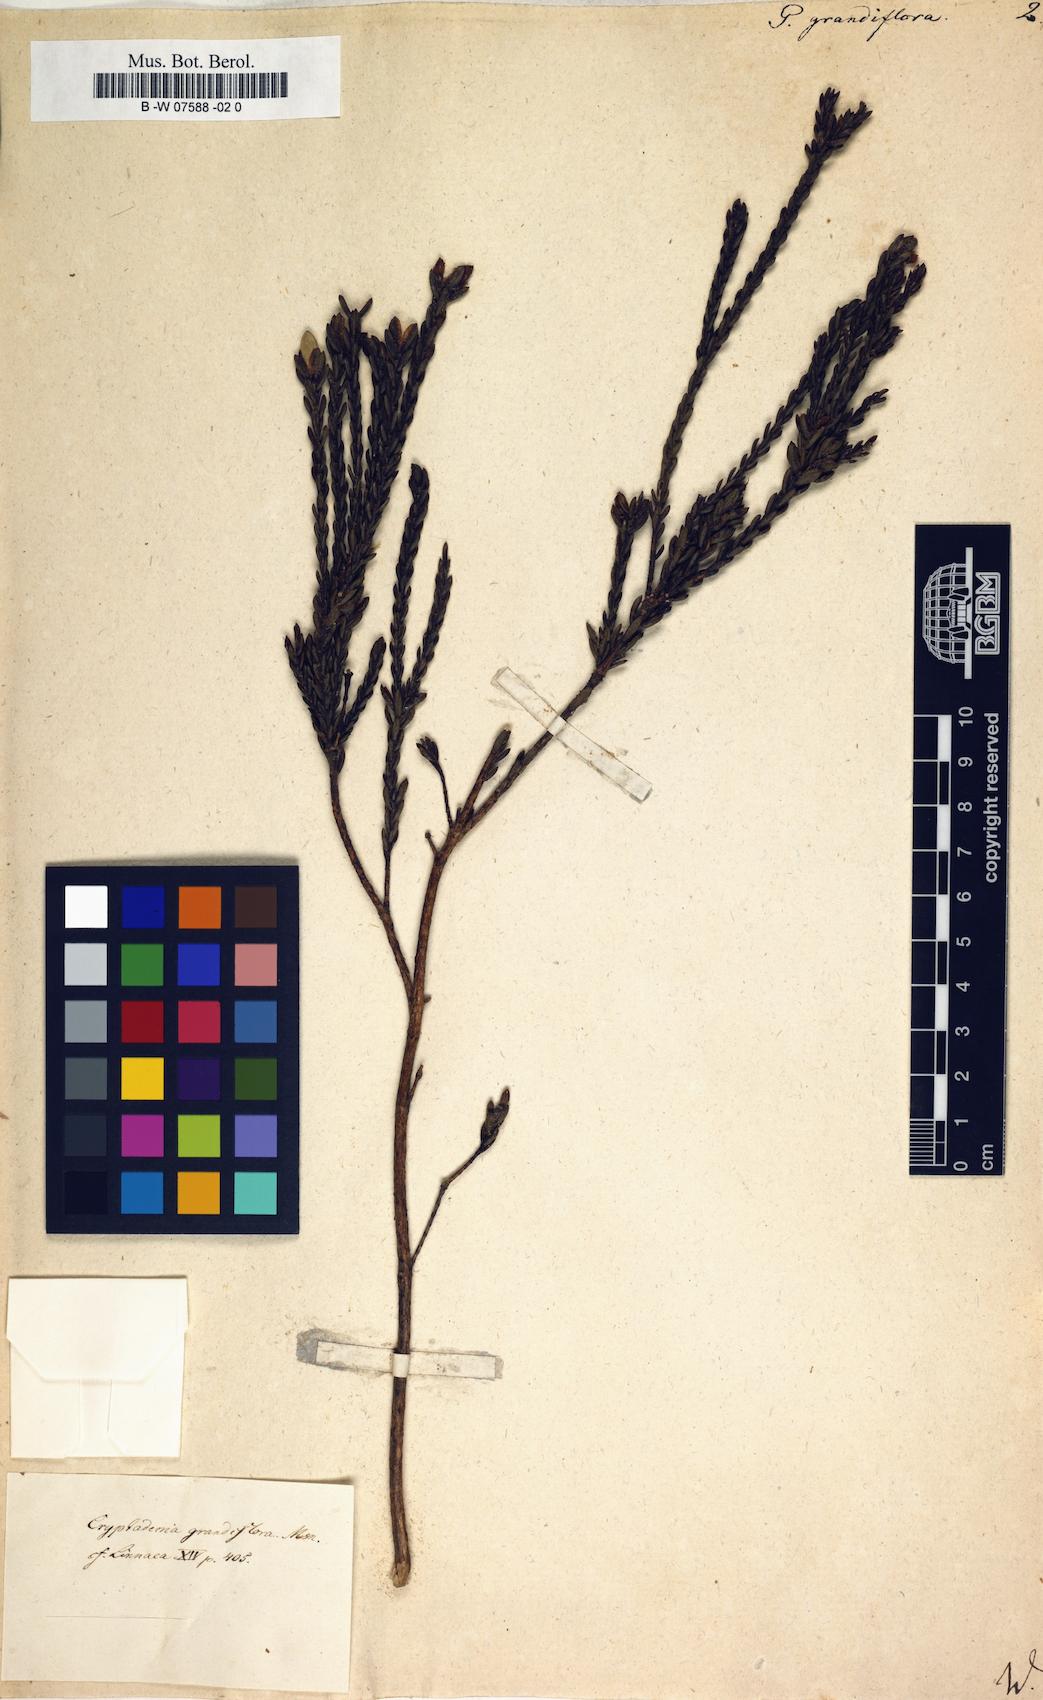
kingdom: Plantae
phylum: Tracheophyta
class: Magnoliopsida
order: Malvales
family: Thymelaeaceae
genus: Lachnaea
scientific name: Lachnaea grandiflora
